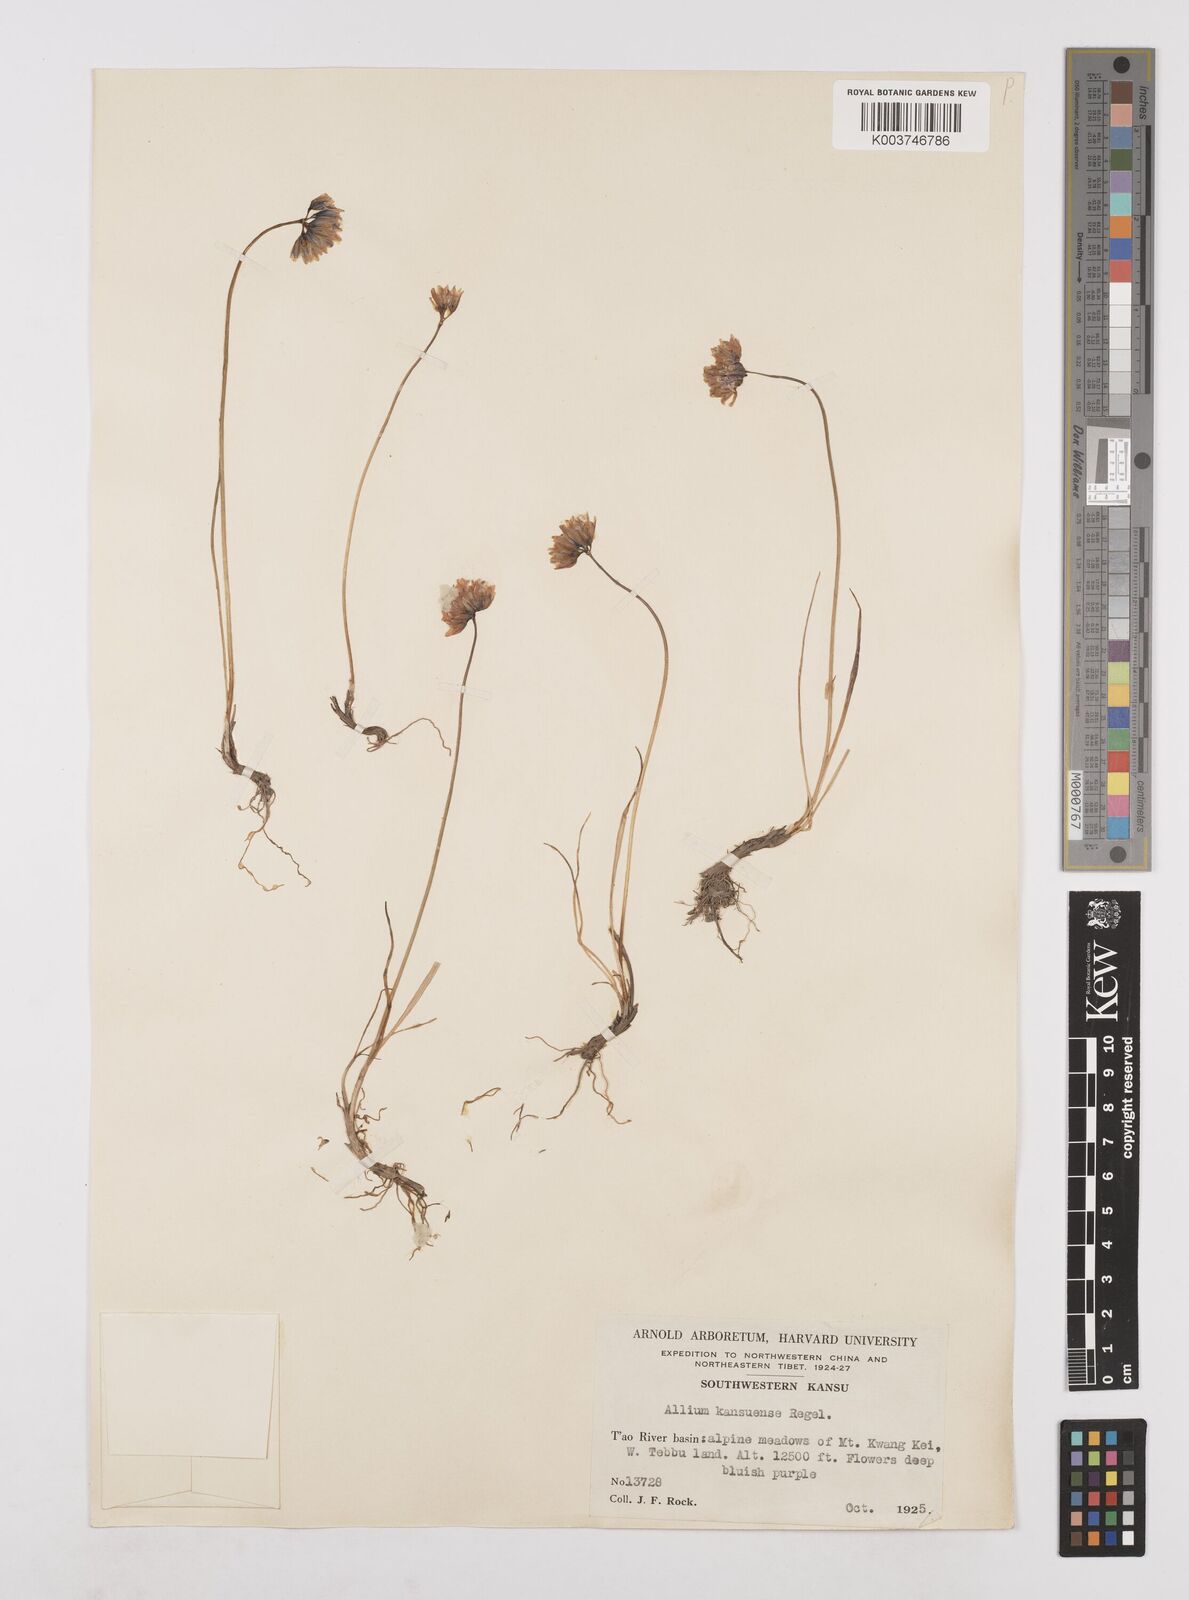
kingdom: Plantae
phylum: Tracheophyta
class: Liliopsida
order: Asparagales
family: Amaryllidaceae
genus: Allium
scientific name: Allium sikkimense
